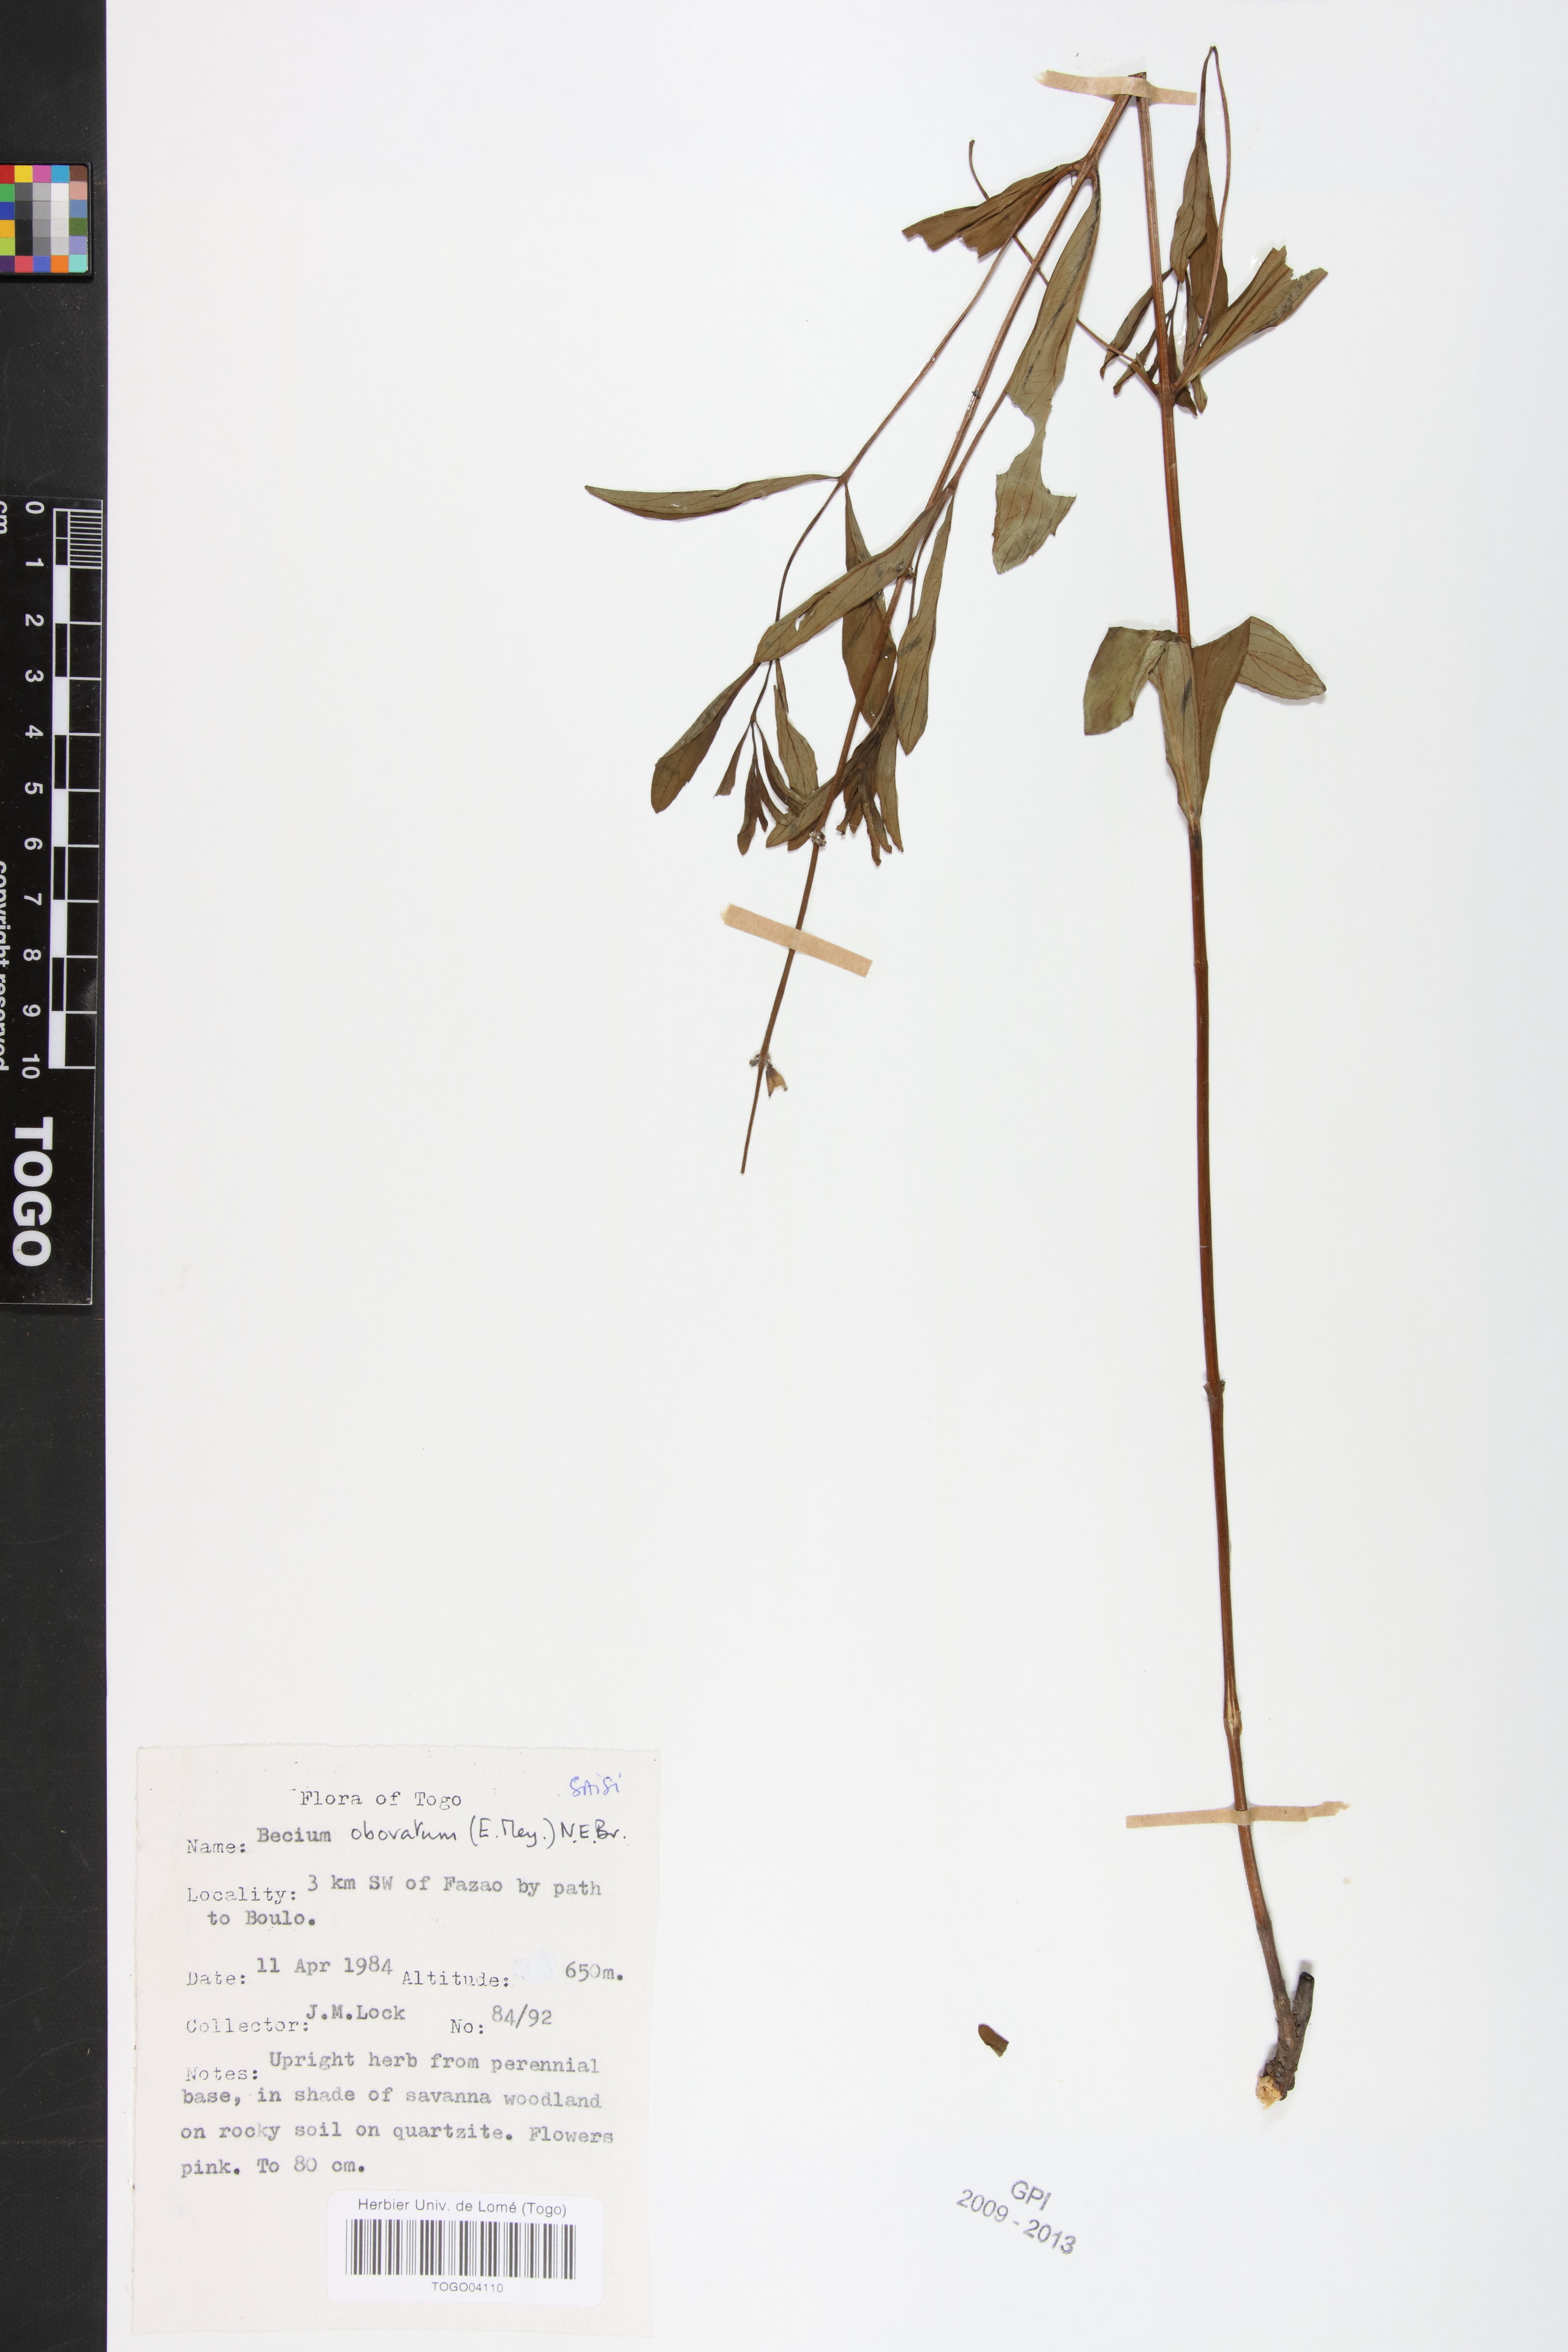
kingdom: Plantae
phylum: Tracheophyta
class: Magnoliopsida
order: Lamiales
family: Lamiaceae
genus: Ocimum
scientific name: Ocimum obovatum
